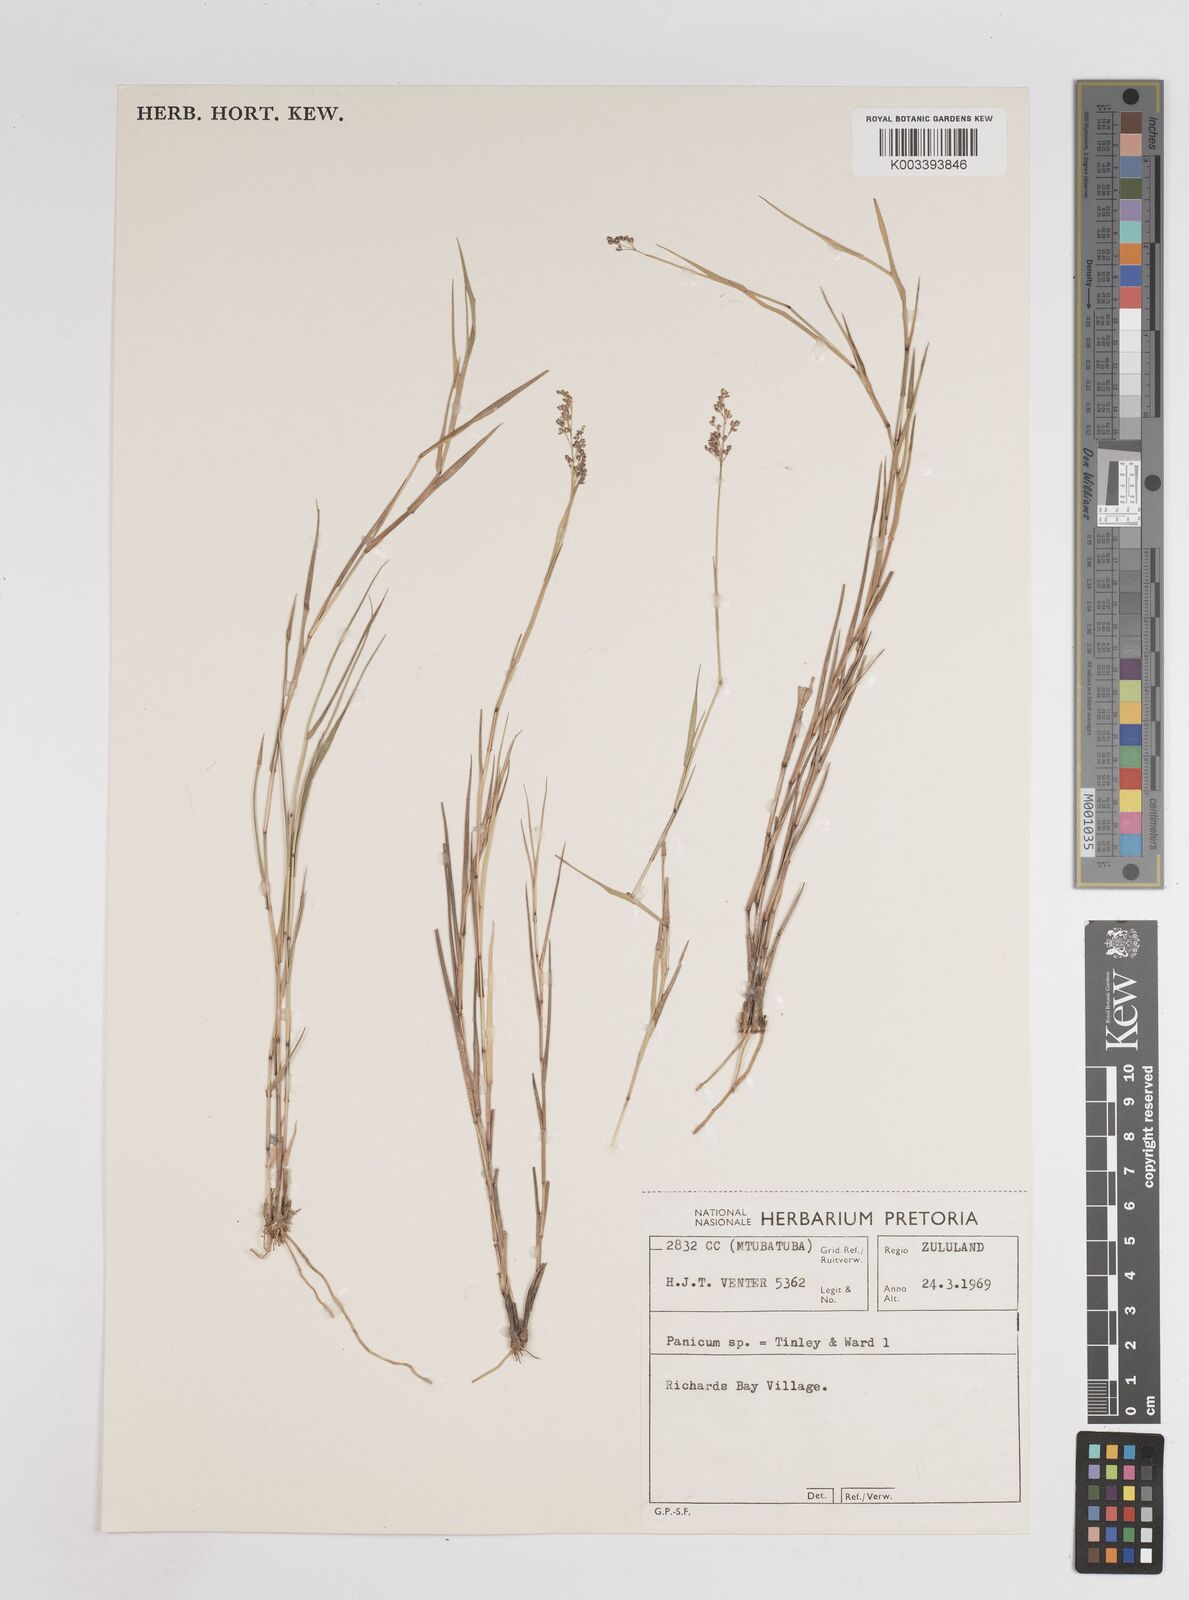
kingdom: Plantae
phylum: Tracheophyta
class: Liliopsida
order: Poales
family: Poaceae
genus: Panicum
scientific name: Panicum subflabellatum
